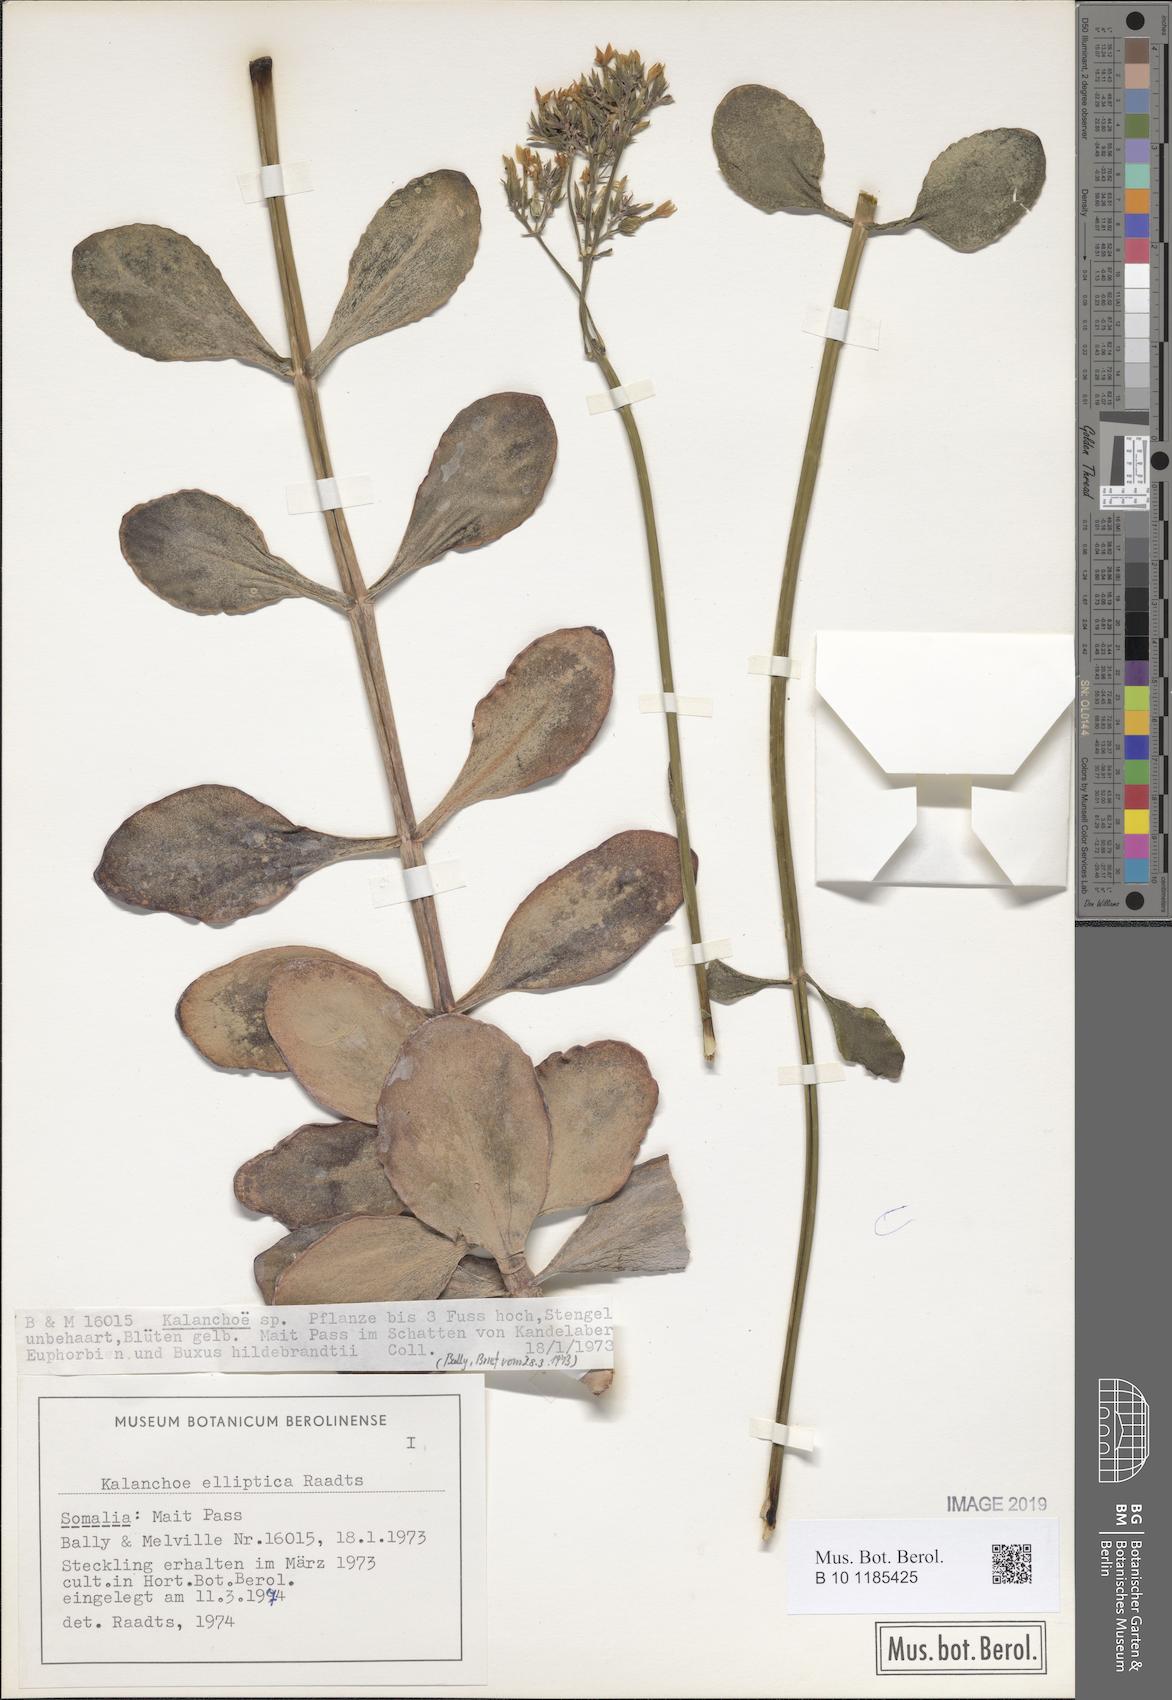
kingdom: Plantae
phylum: Tracheophyta
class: Magnoliopsida
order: Saxifragales
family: Crassulaceae
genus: Kalanchoe
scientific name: Kalanchoe glaucescens
